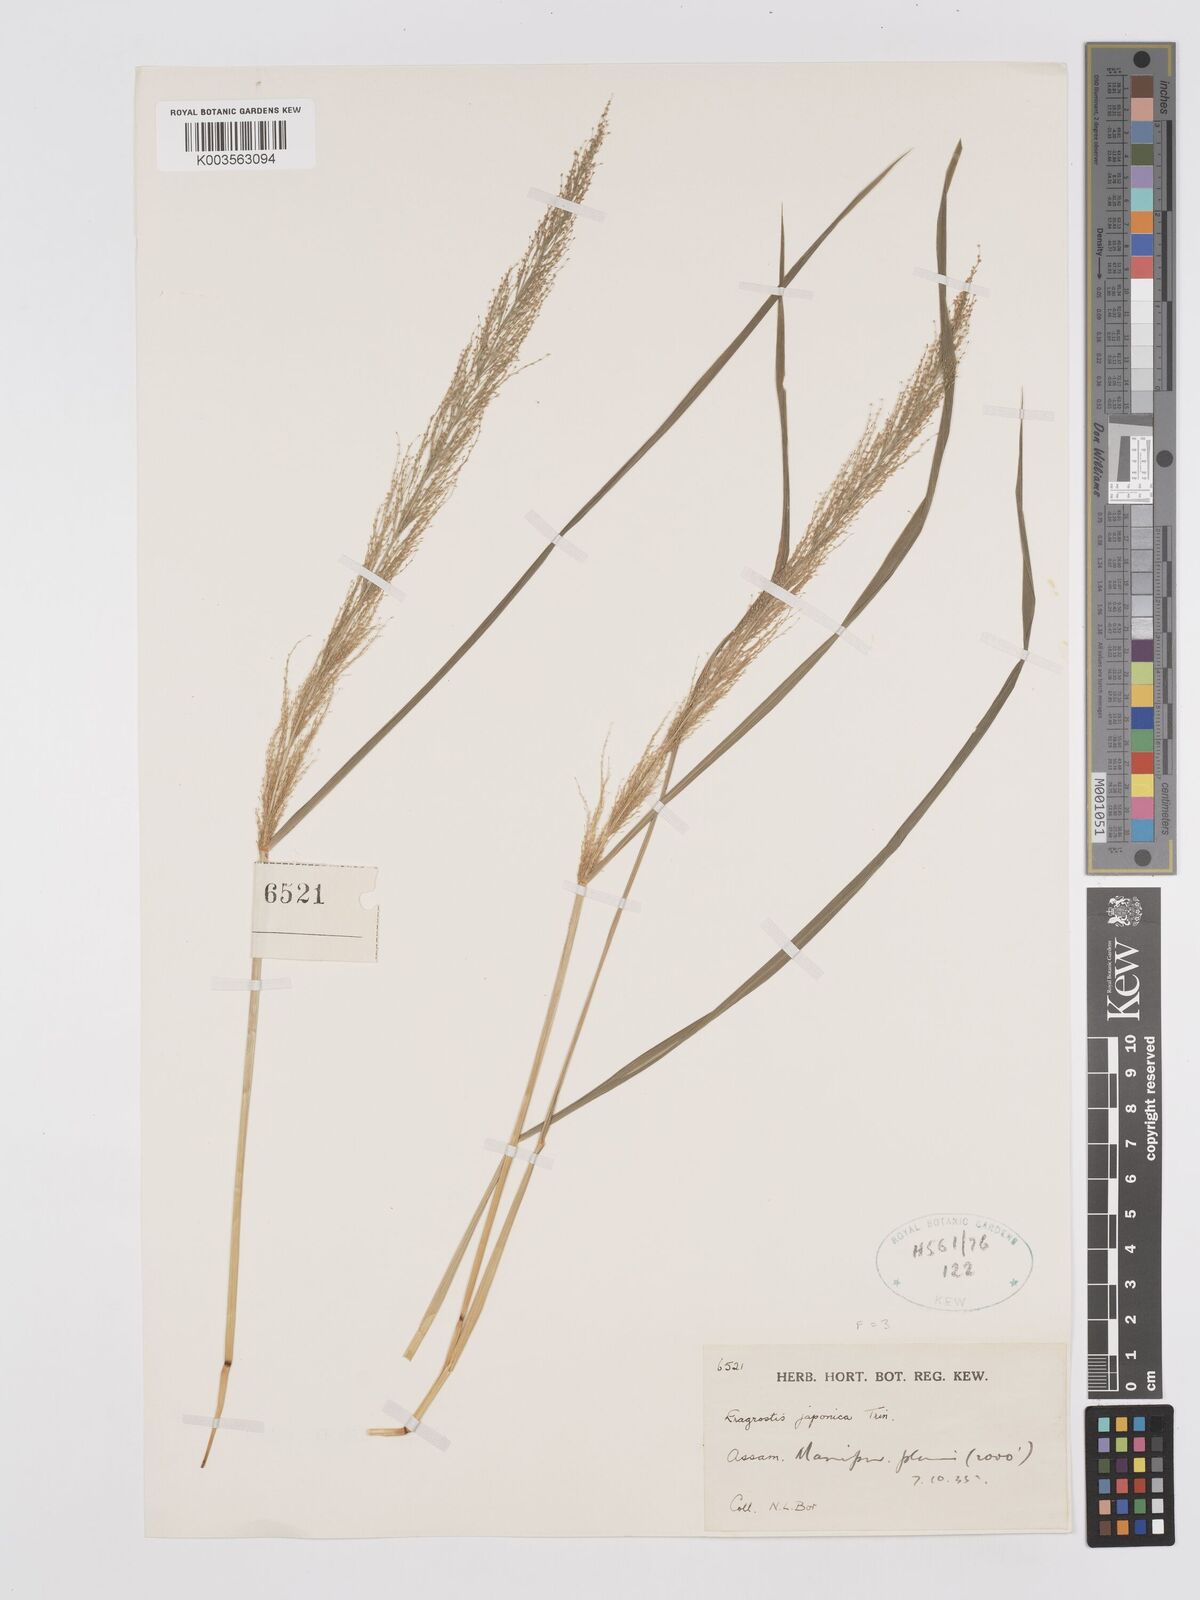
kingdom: Plantae
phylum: Tracheophyta
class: Liliopsida
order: Poales
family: Poaceae
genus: Eragrostis
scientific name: Eragrostis japonica
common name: Pond lovegrass
